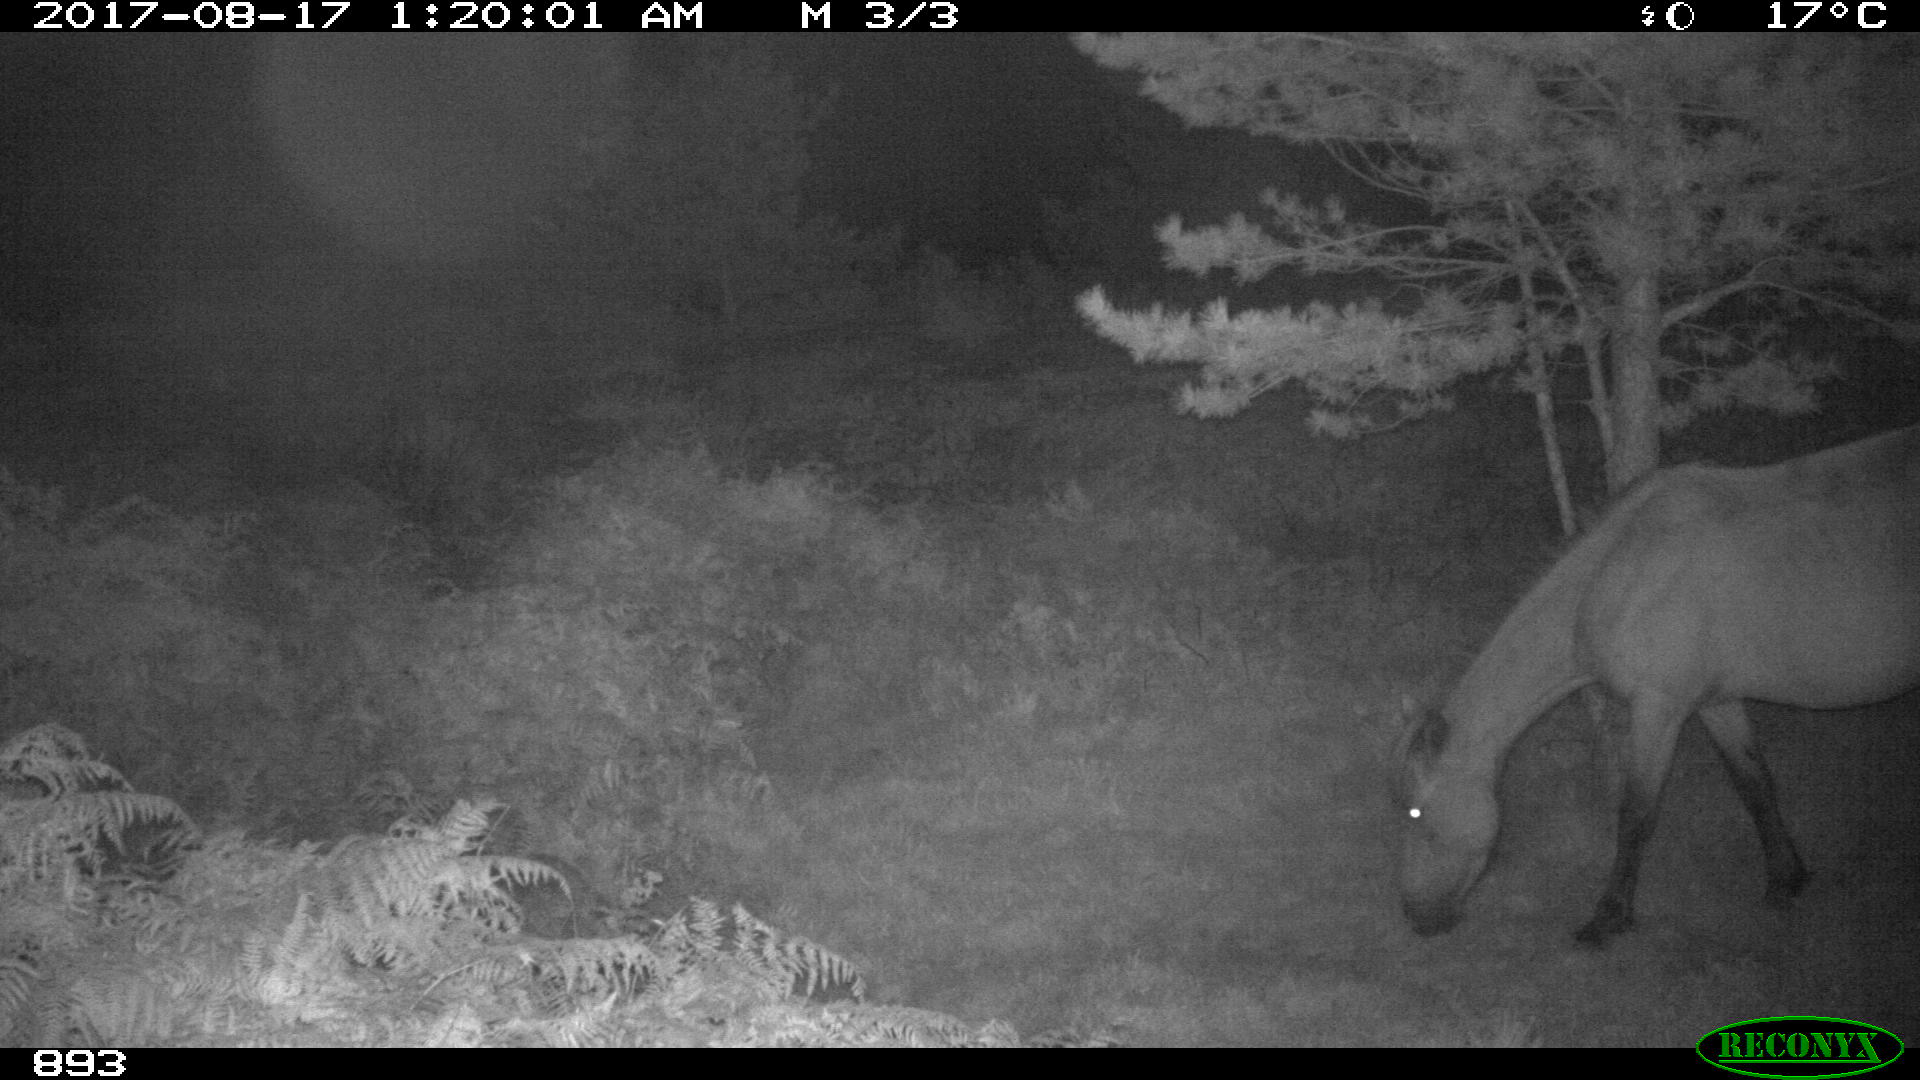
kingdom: Animalia
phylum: Chordata
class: Mammalia
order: Perissodactyla
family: Equidae
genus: Equus
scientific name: Equus caballus
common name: Horse
